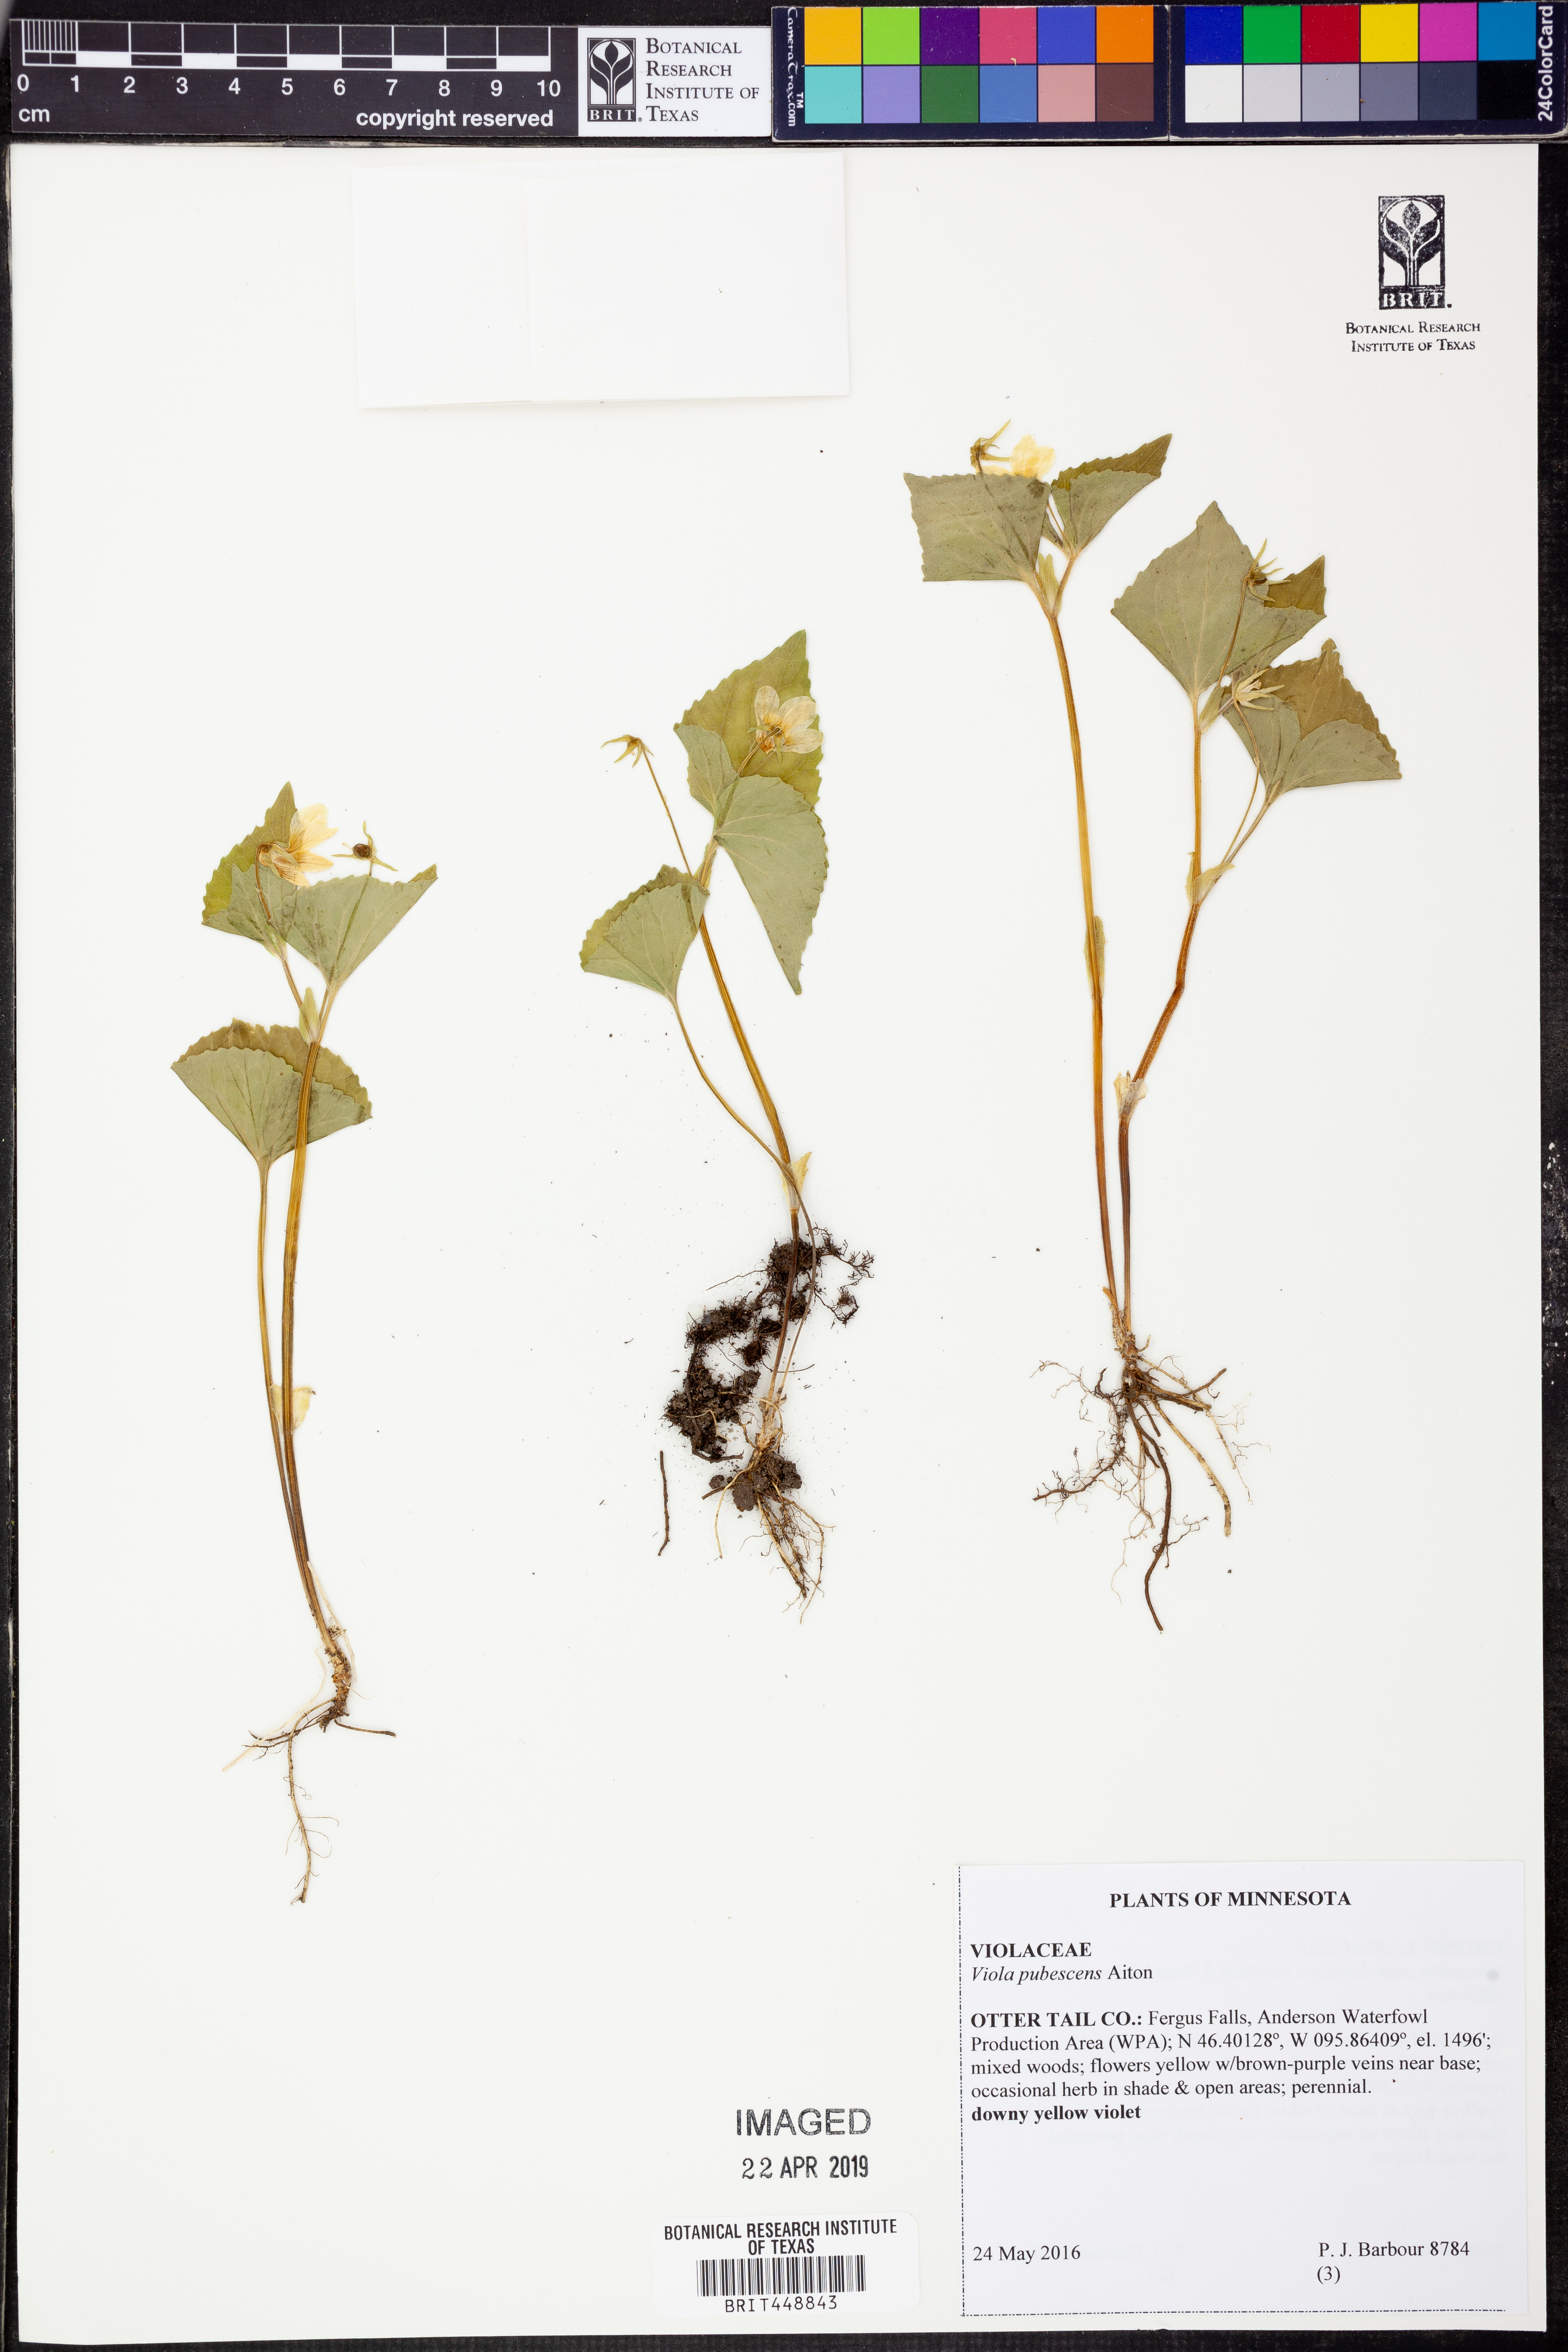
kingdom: Plantae
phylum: Tracheophyta
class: Magnoliopsida
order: Malpighiales
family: Violaceae
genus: Viola
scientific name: Viola pubescens
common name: Yellow forest violet
